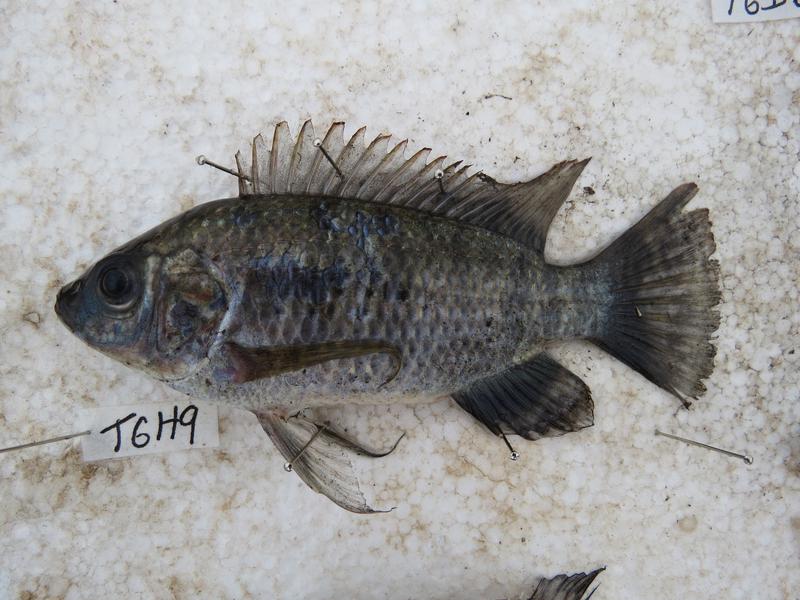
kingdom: Animalia
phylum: Chordata
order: Perciformes
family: Cichlidae
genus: Oreochromis
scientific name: Oreochromis leucostictus
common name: Blue spotted tilapia
